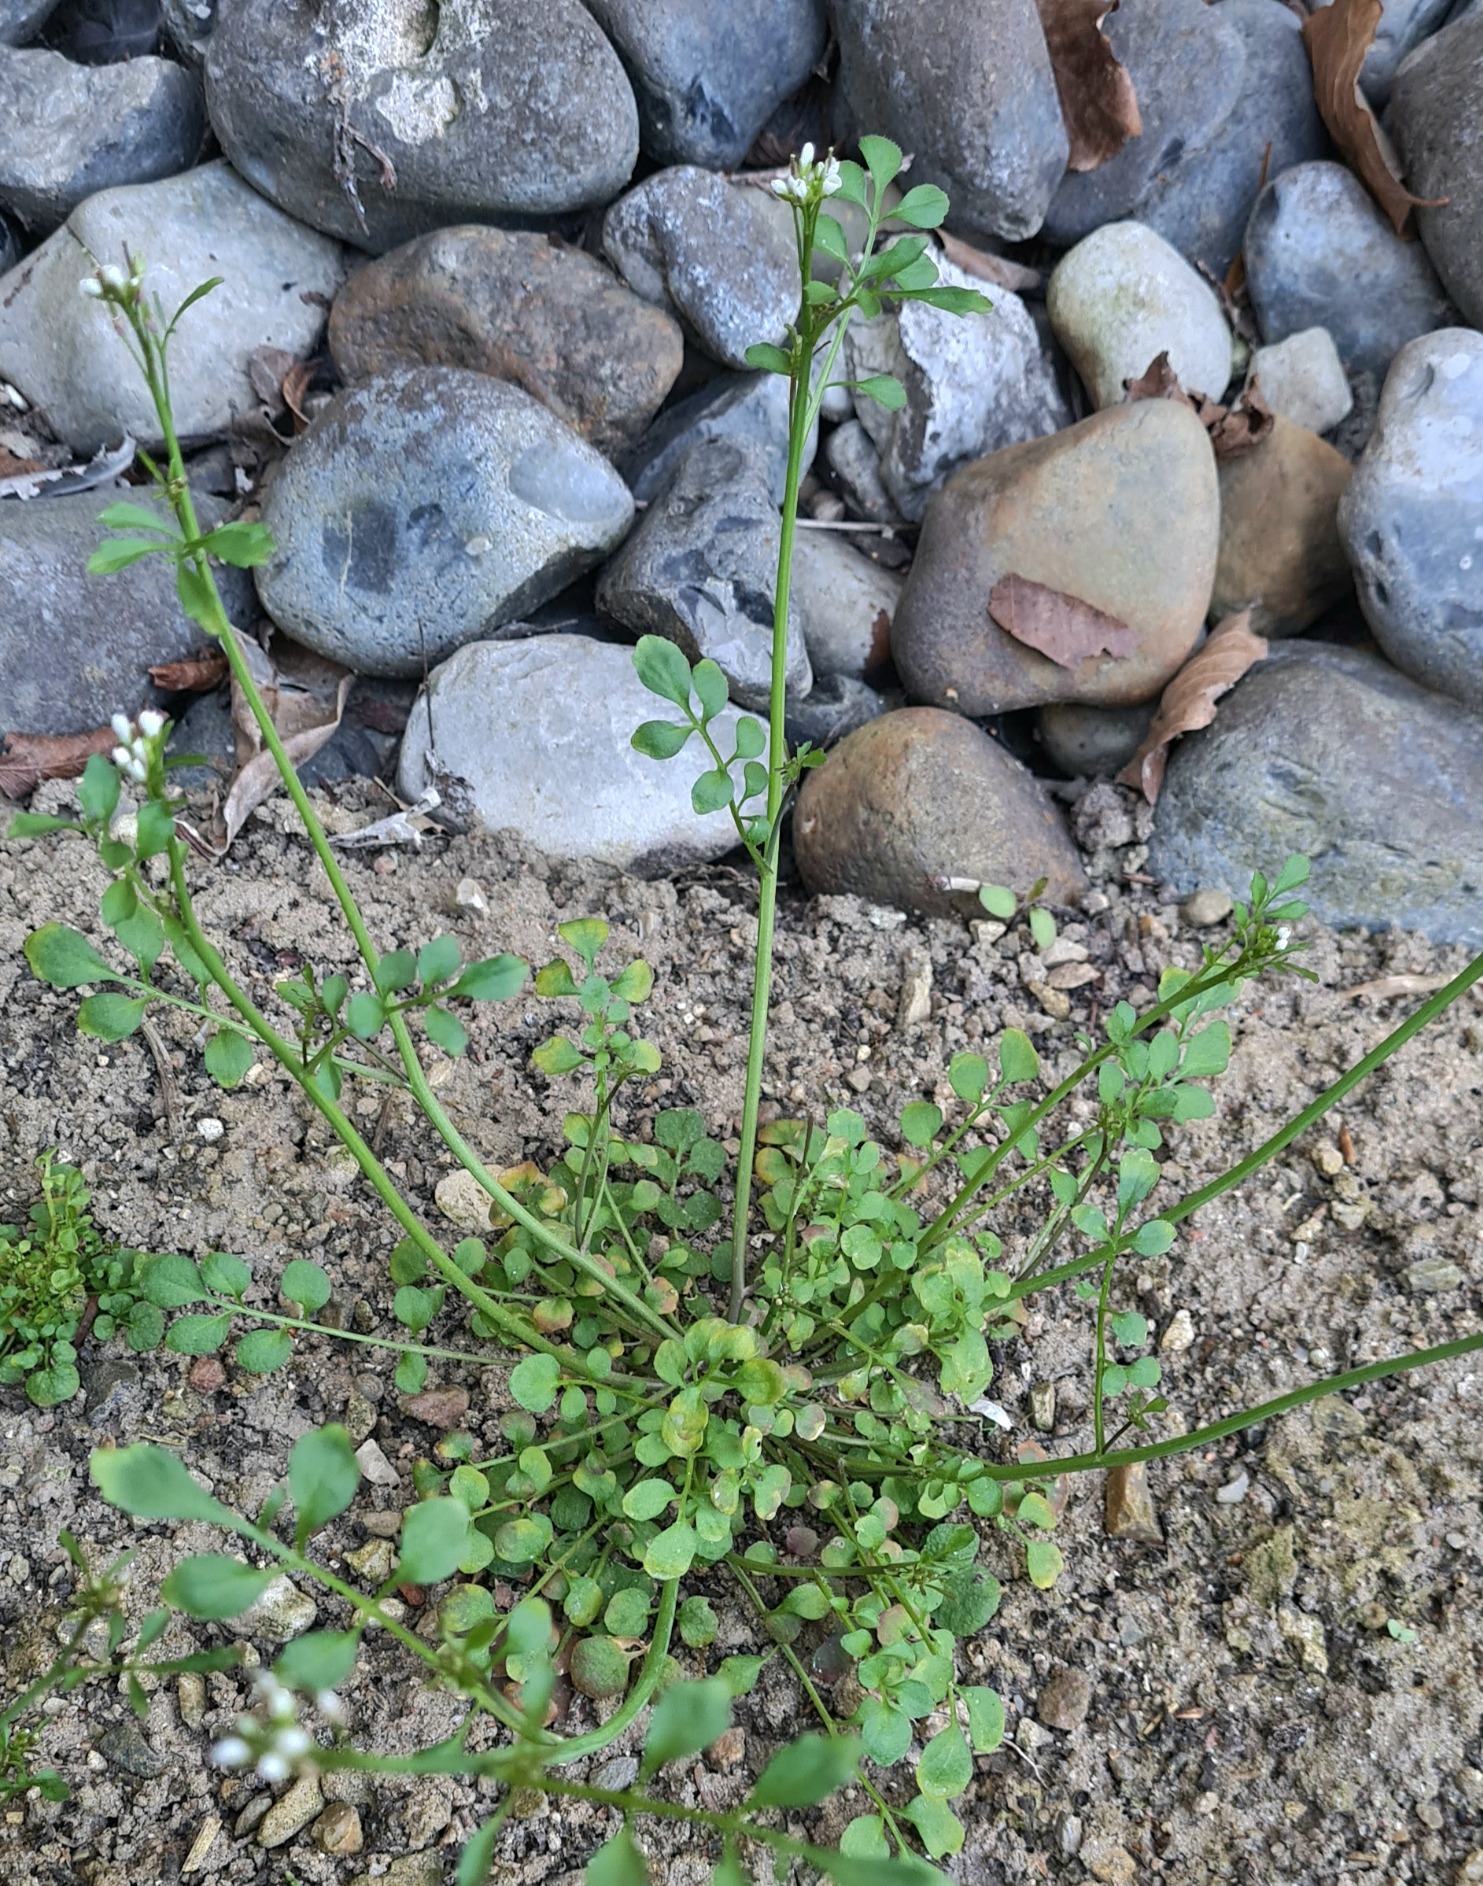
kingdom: Plantae
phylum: Tracheophyta
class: Magnoliopsida
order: Brassicales
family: Brassicaceae
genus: Cardamine
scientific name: Cardamine hirsuta
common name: Roset-springklap
